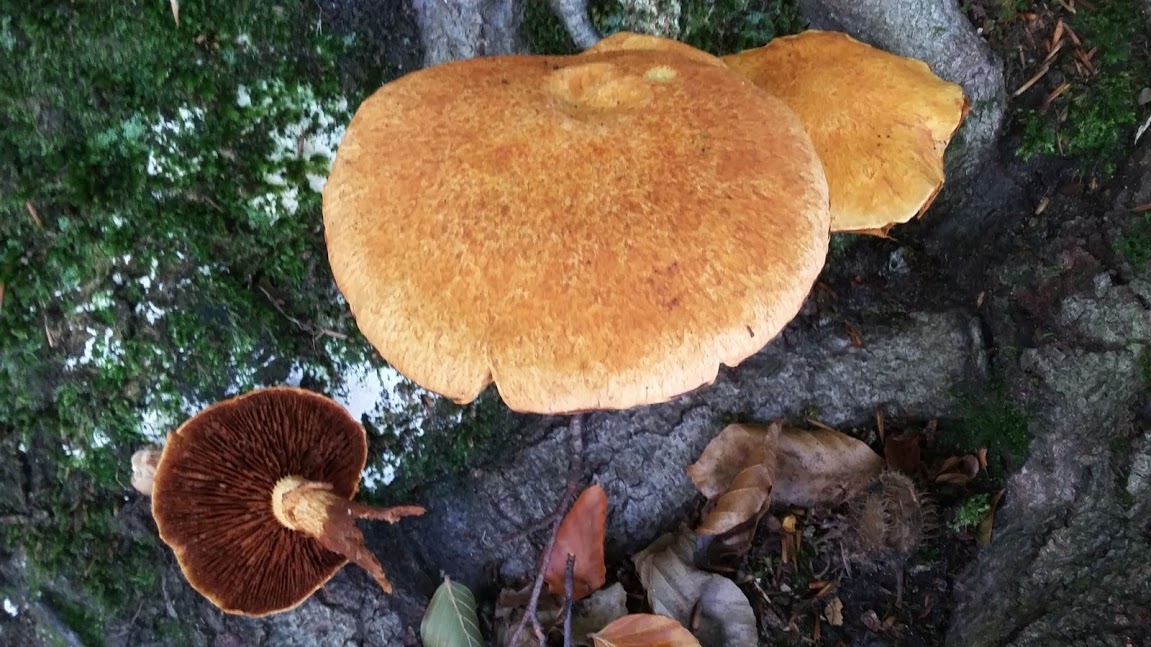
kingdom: Fungi
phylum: Basidiomycota
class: Agaricomycetes
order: Agaricales
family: Hymenogastraceae
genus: Gymnopilus
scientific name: Gymnopilus spectabilis
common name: fibret flammehat
